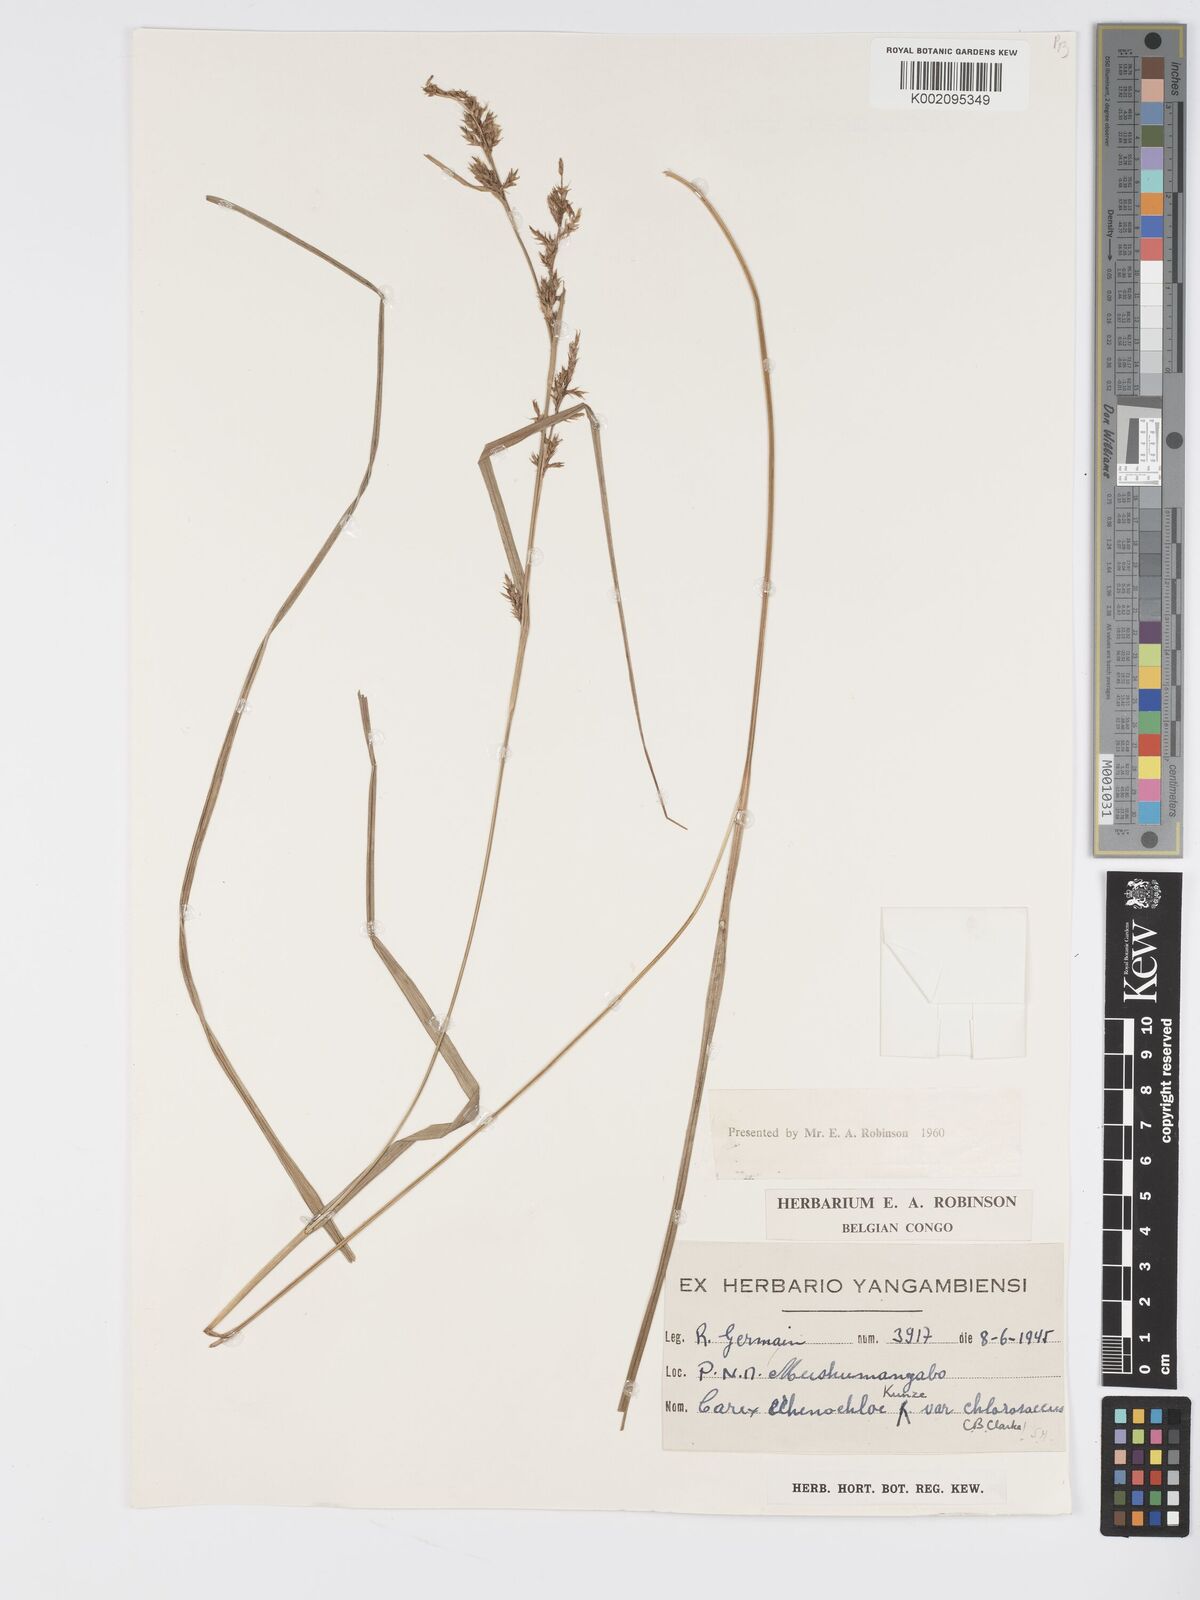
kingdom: Plantae
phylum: Tracheophyta
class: Liliopsida
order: Poales
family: Cyperaceae
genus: Carex
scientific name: Carex chlorosaccus
